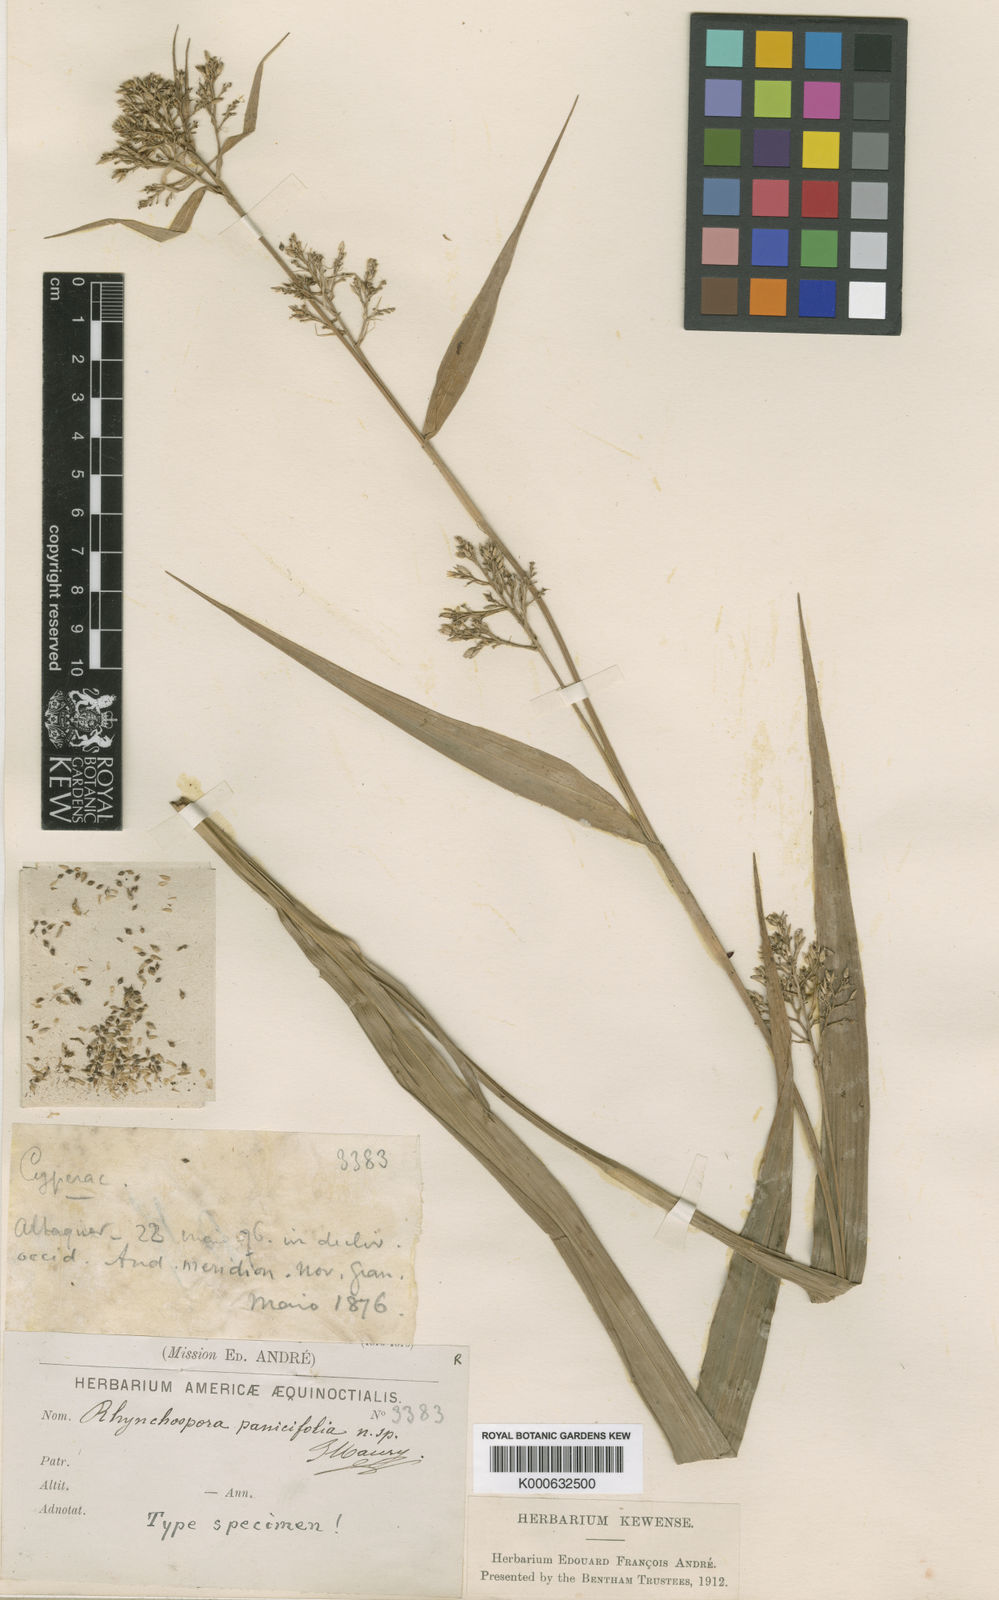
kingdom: Plantae
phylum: Tracheophyta
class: Liliopsida
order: Poales
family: Cyperaceae
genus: Rhynchospora
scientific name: Rhynchospora panicifolia
